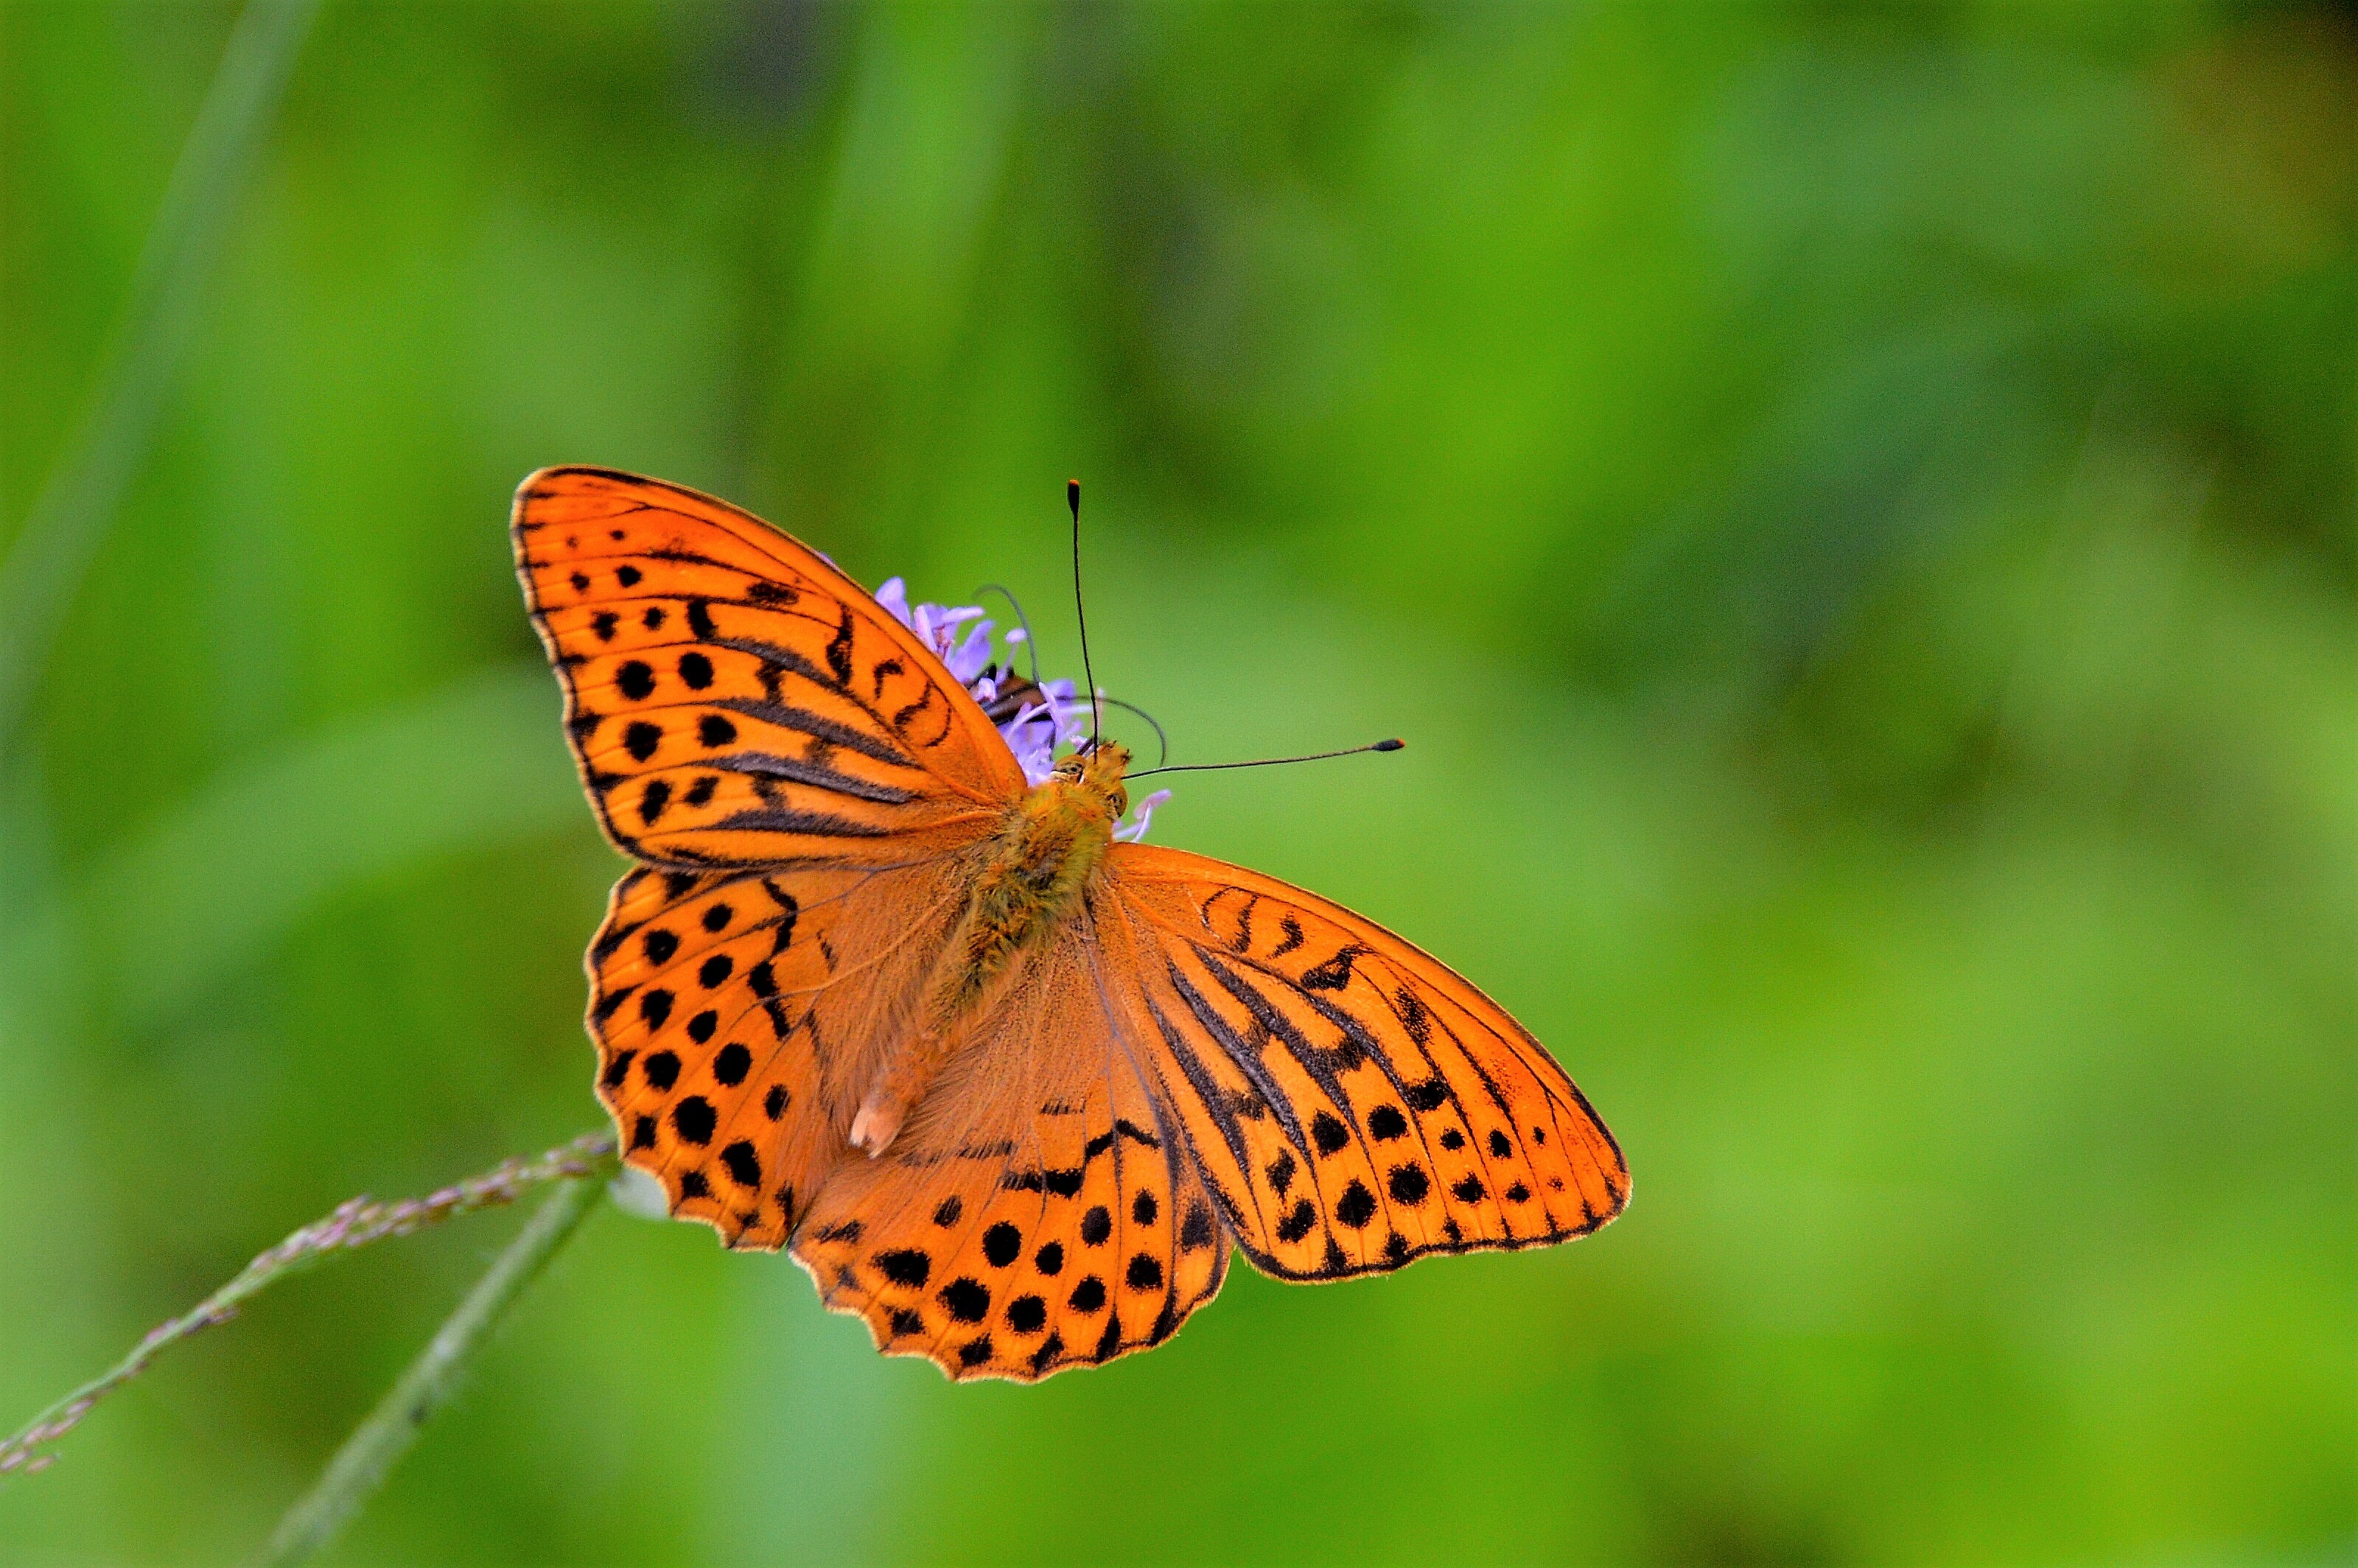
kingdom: Animalia
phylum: Arthropoda
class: Insecta
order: Lepidoptera
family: Nymphalidae
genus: Argynnis
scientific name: Argynnis paphia
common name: Silver-washed fritillary
